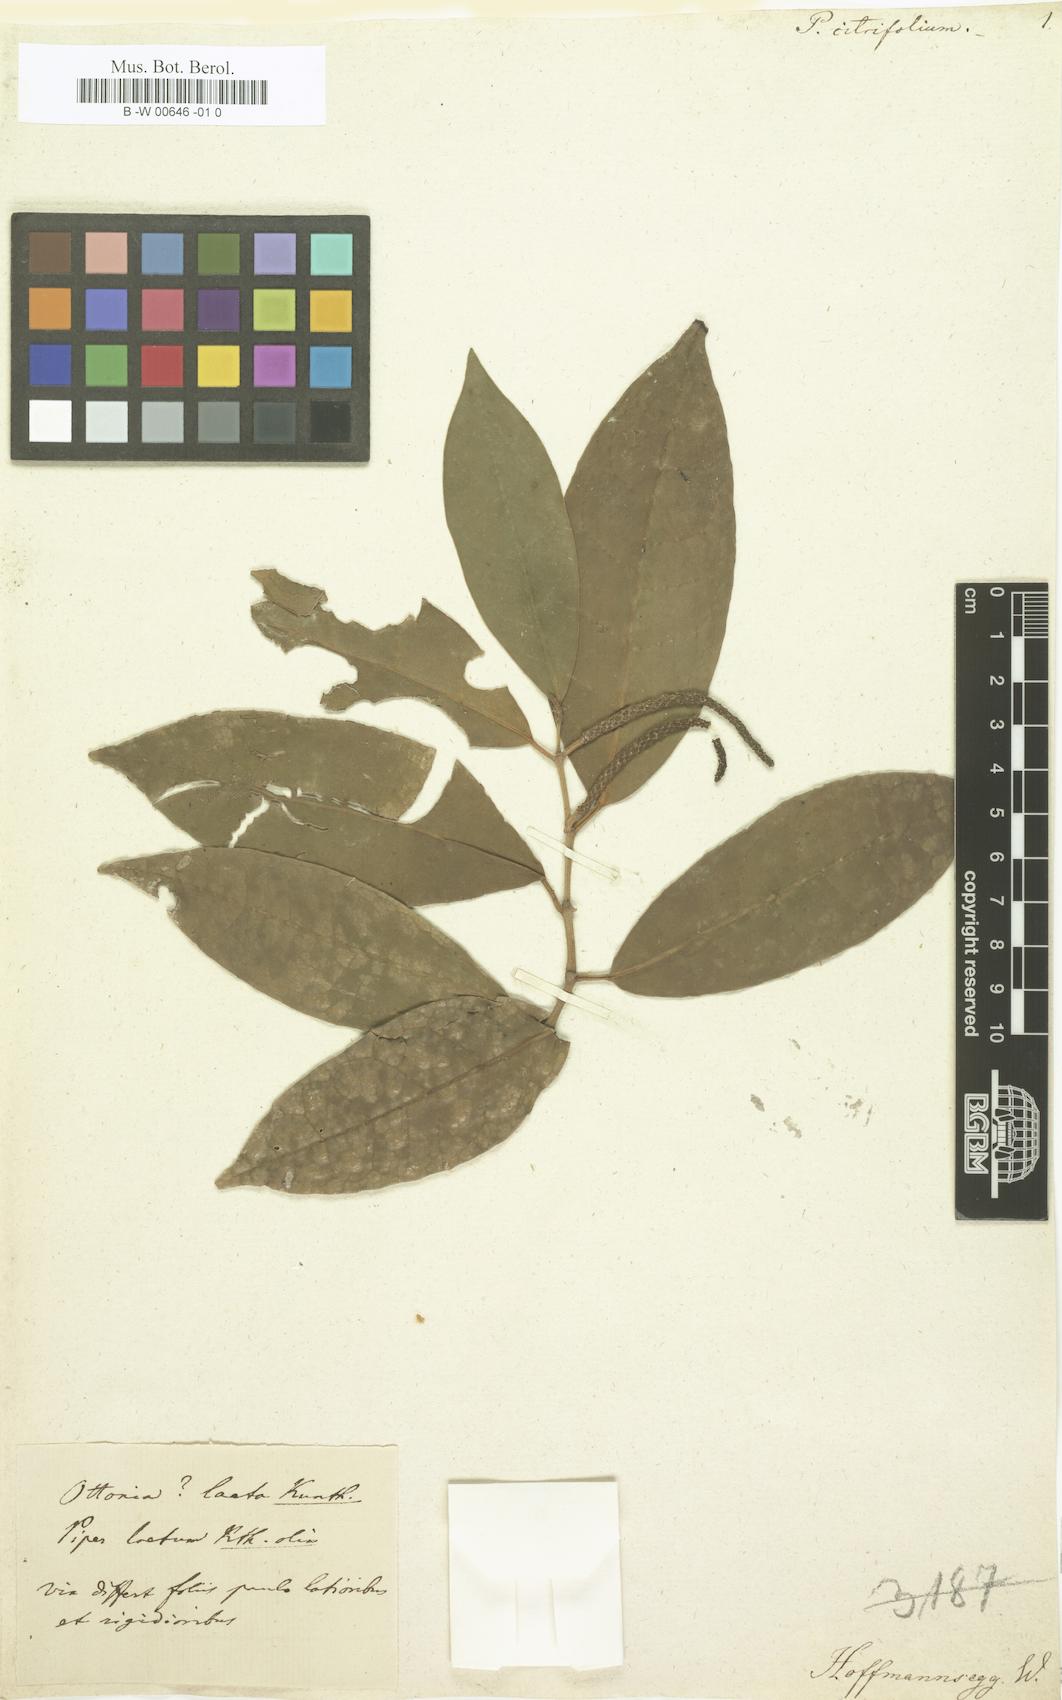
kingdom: Plantae
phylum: Tracheophyta
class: Magnoliopsida
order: Piperales
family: Piperaceae
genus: Piper
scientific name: Piper jacquemontianum
